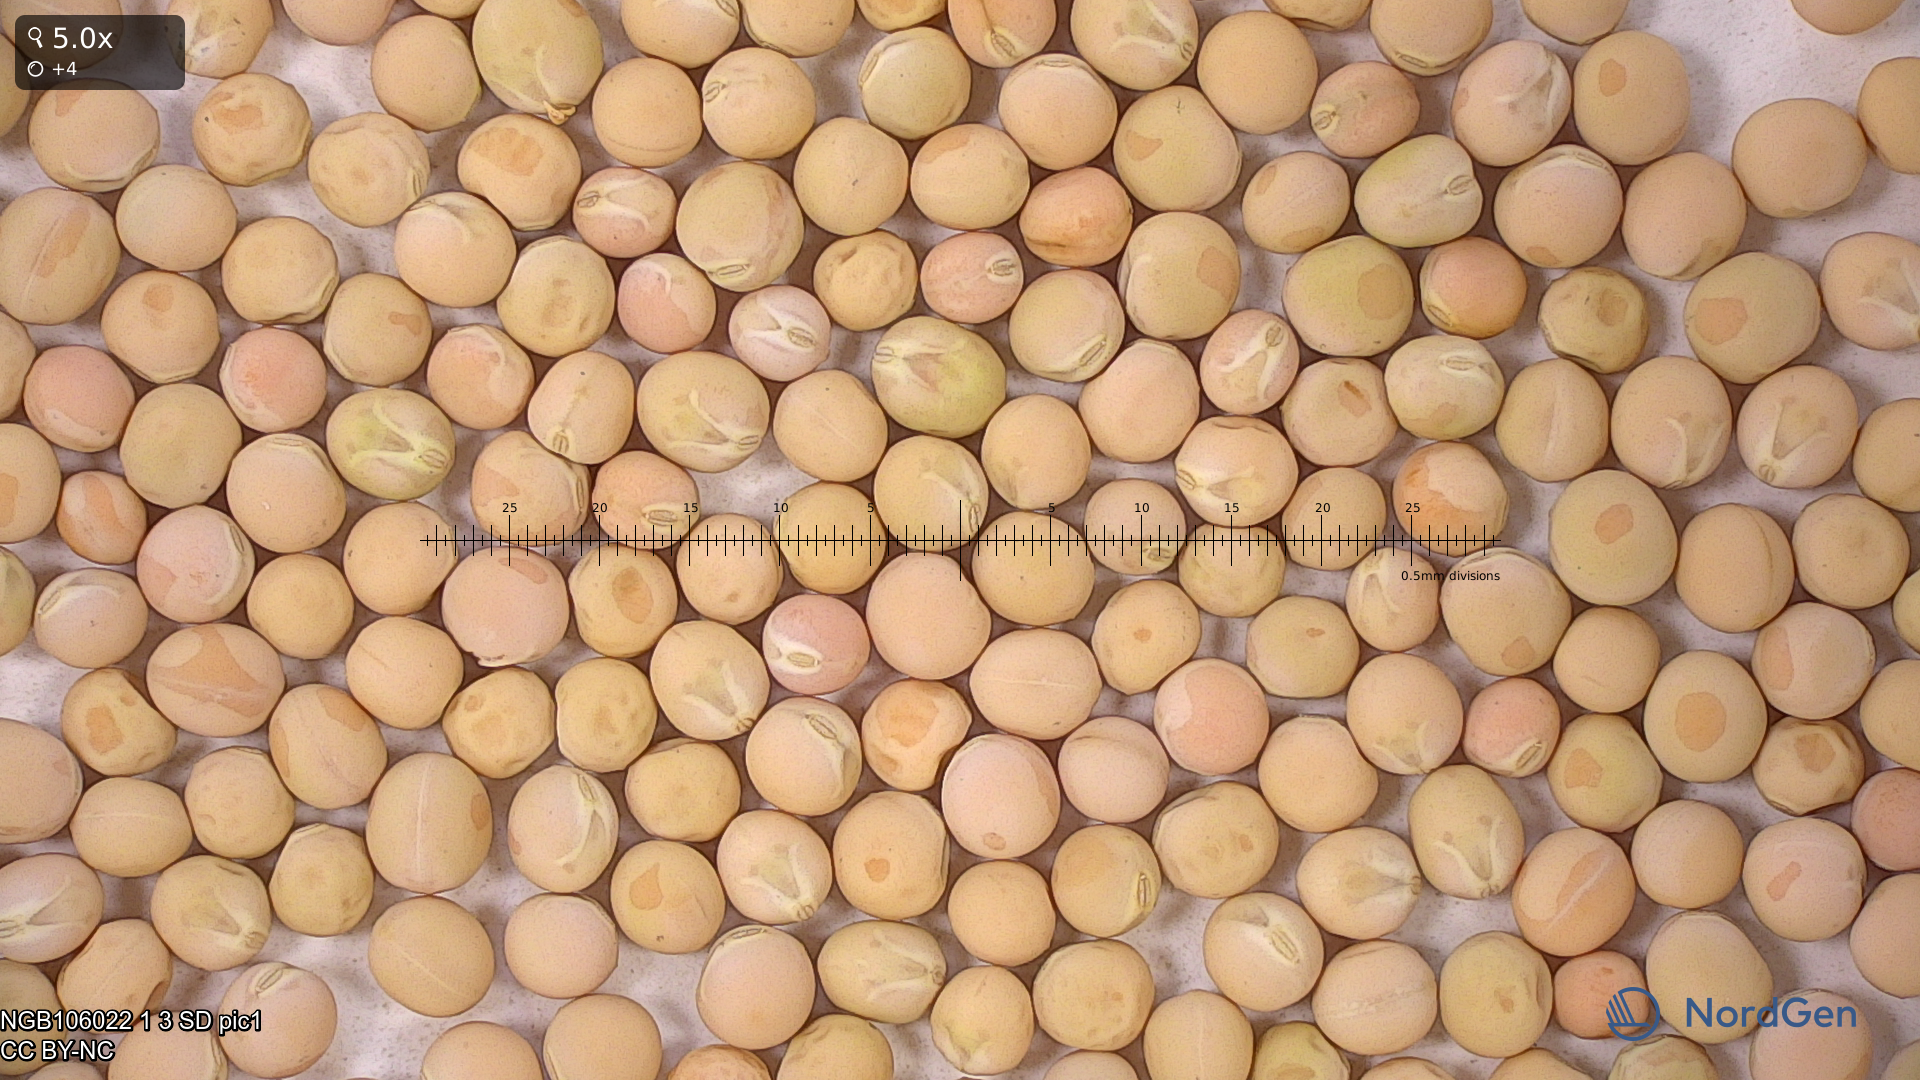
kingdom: Plantae
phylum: Tracheophyta
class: Magnoliopsida
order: Fabales
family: Fabaceae
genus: Lathyrus
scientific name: Lathyrus oleraceus
